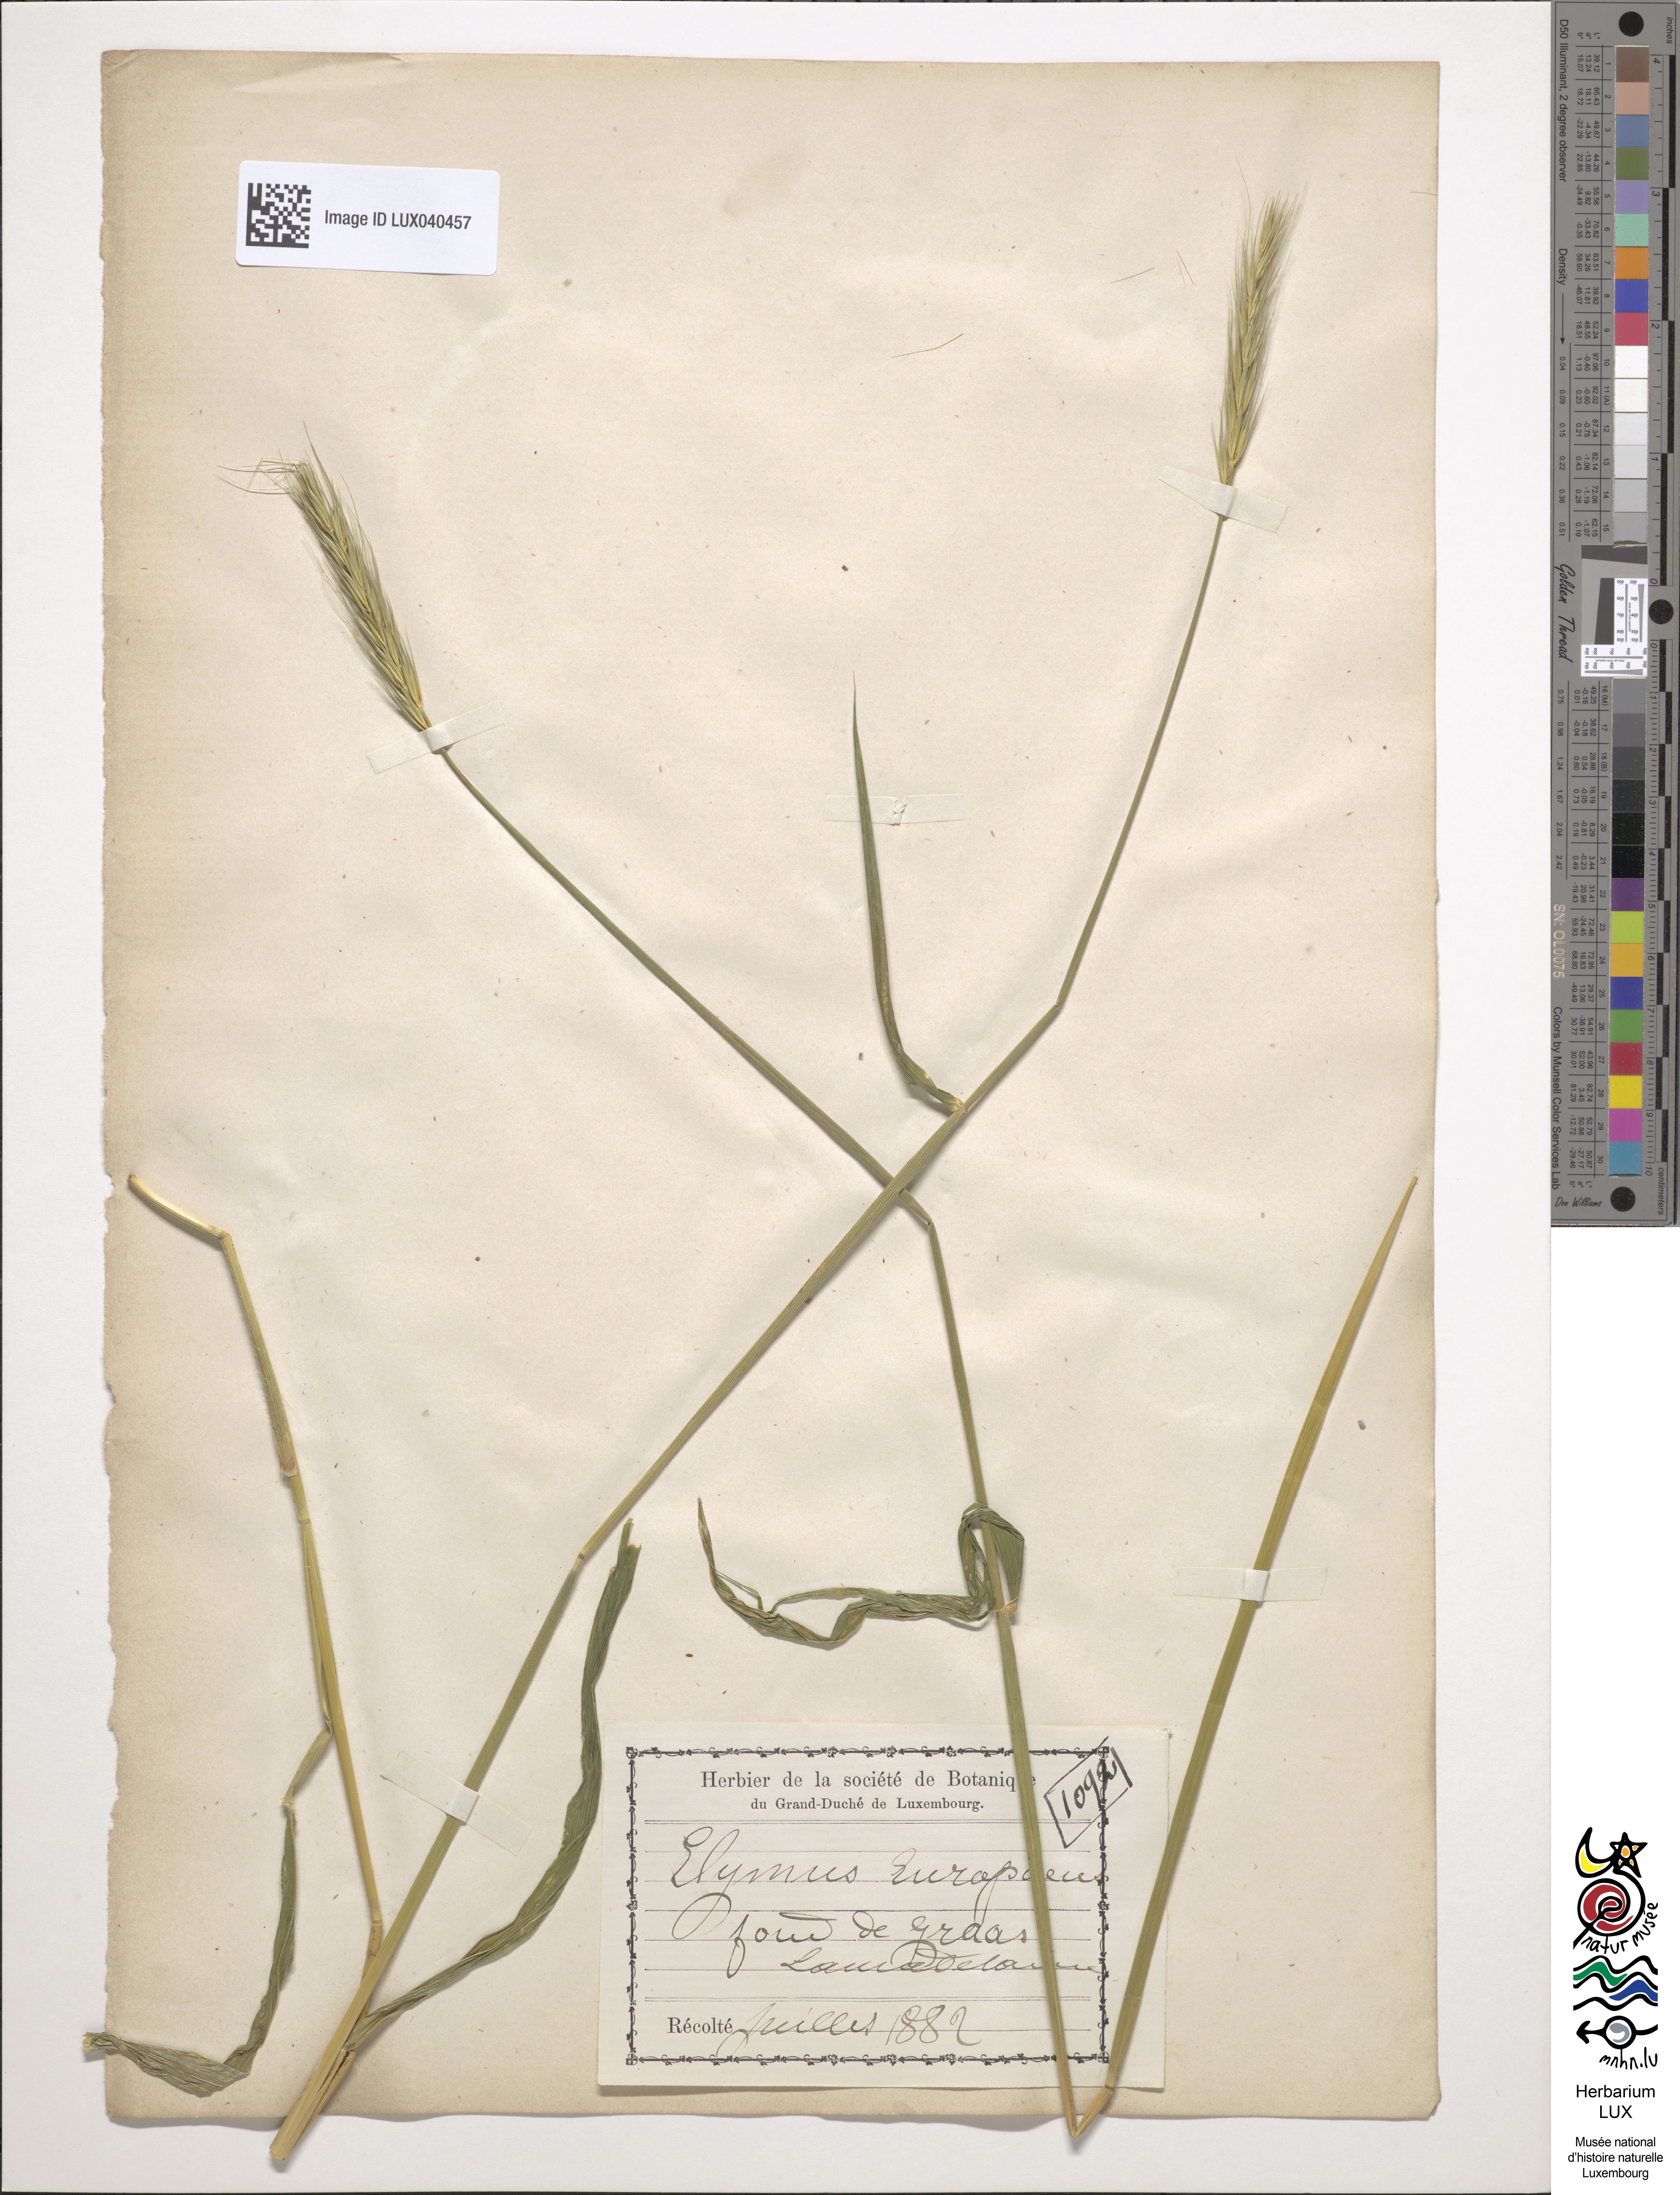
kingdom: Plantae
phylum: Tracheophyta
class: Liliopsida
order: Poales
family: Poaceae
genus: Hordelymus
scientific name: Hordelymus europaeus
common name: Wood-barley
